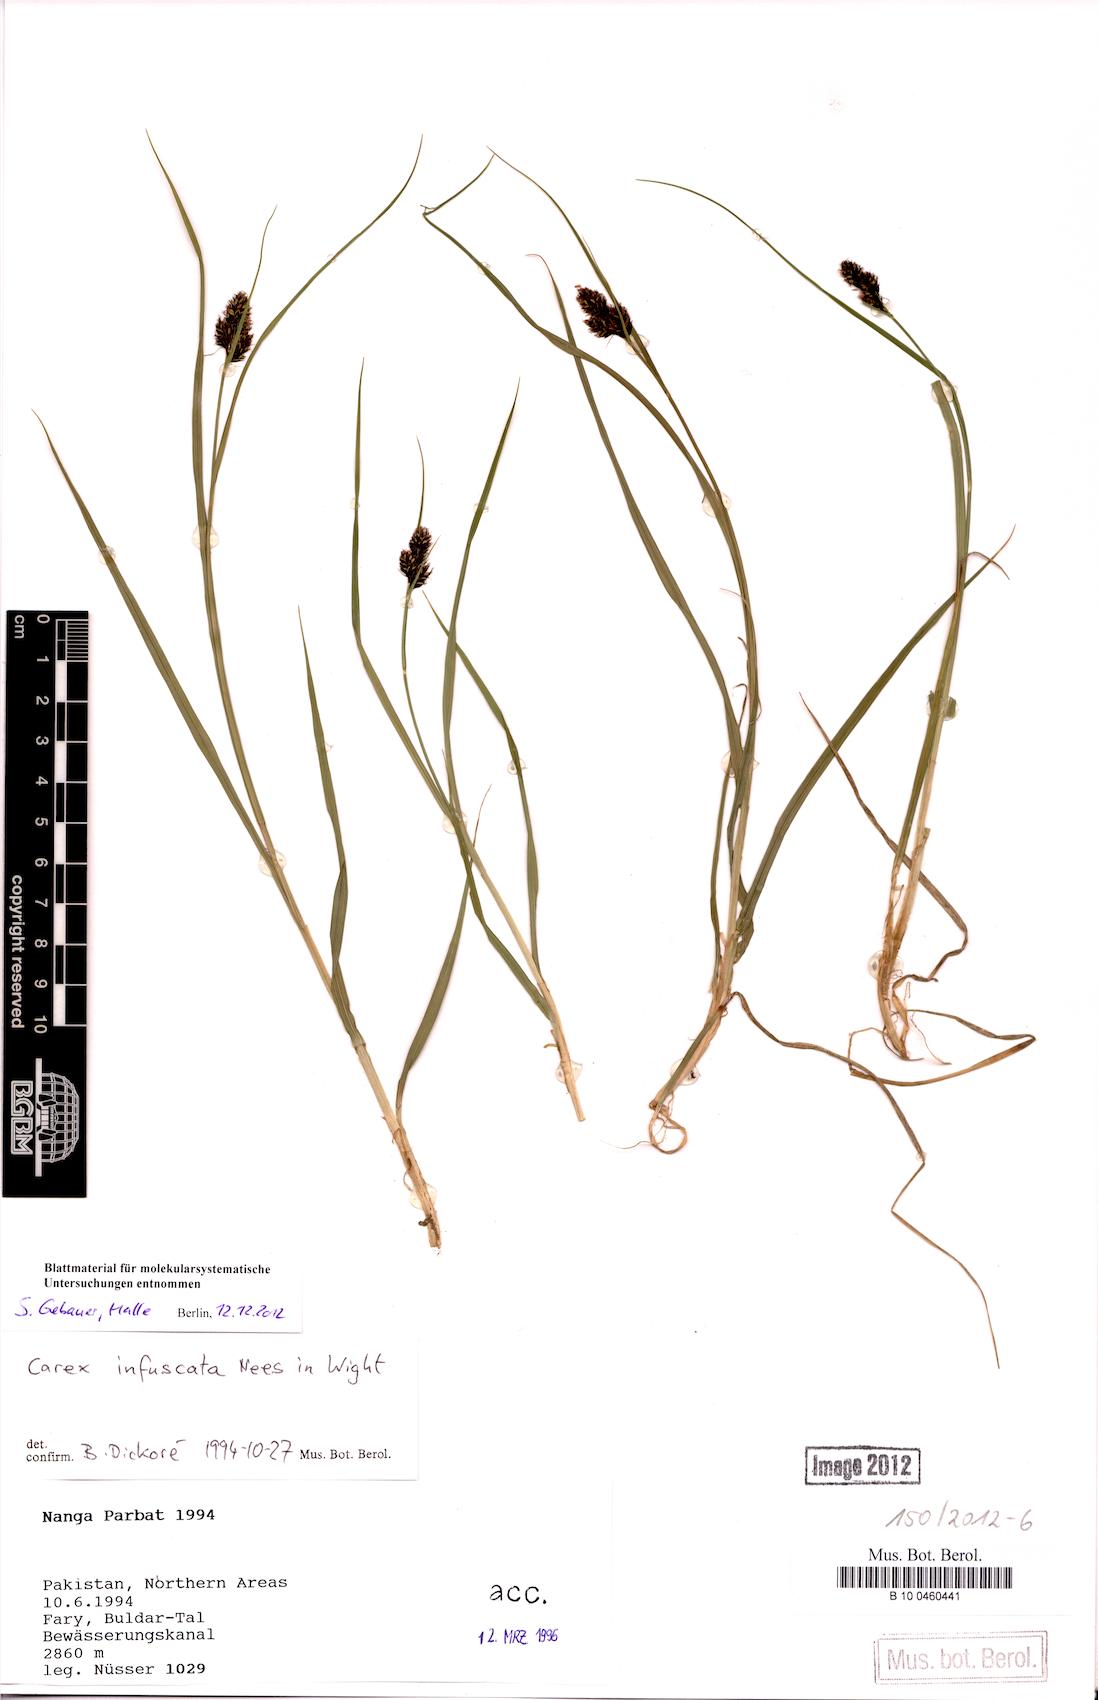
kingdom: Plantae
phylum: Tracheophyta
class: Liliopsida
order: Poales
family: Cyperaceae
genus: Carex
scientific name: Carex infuscata
